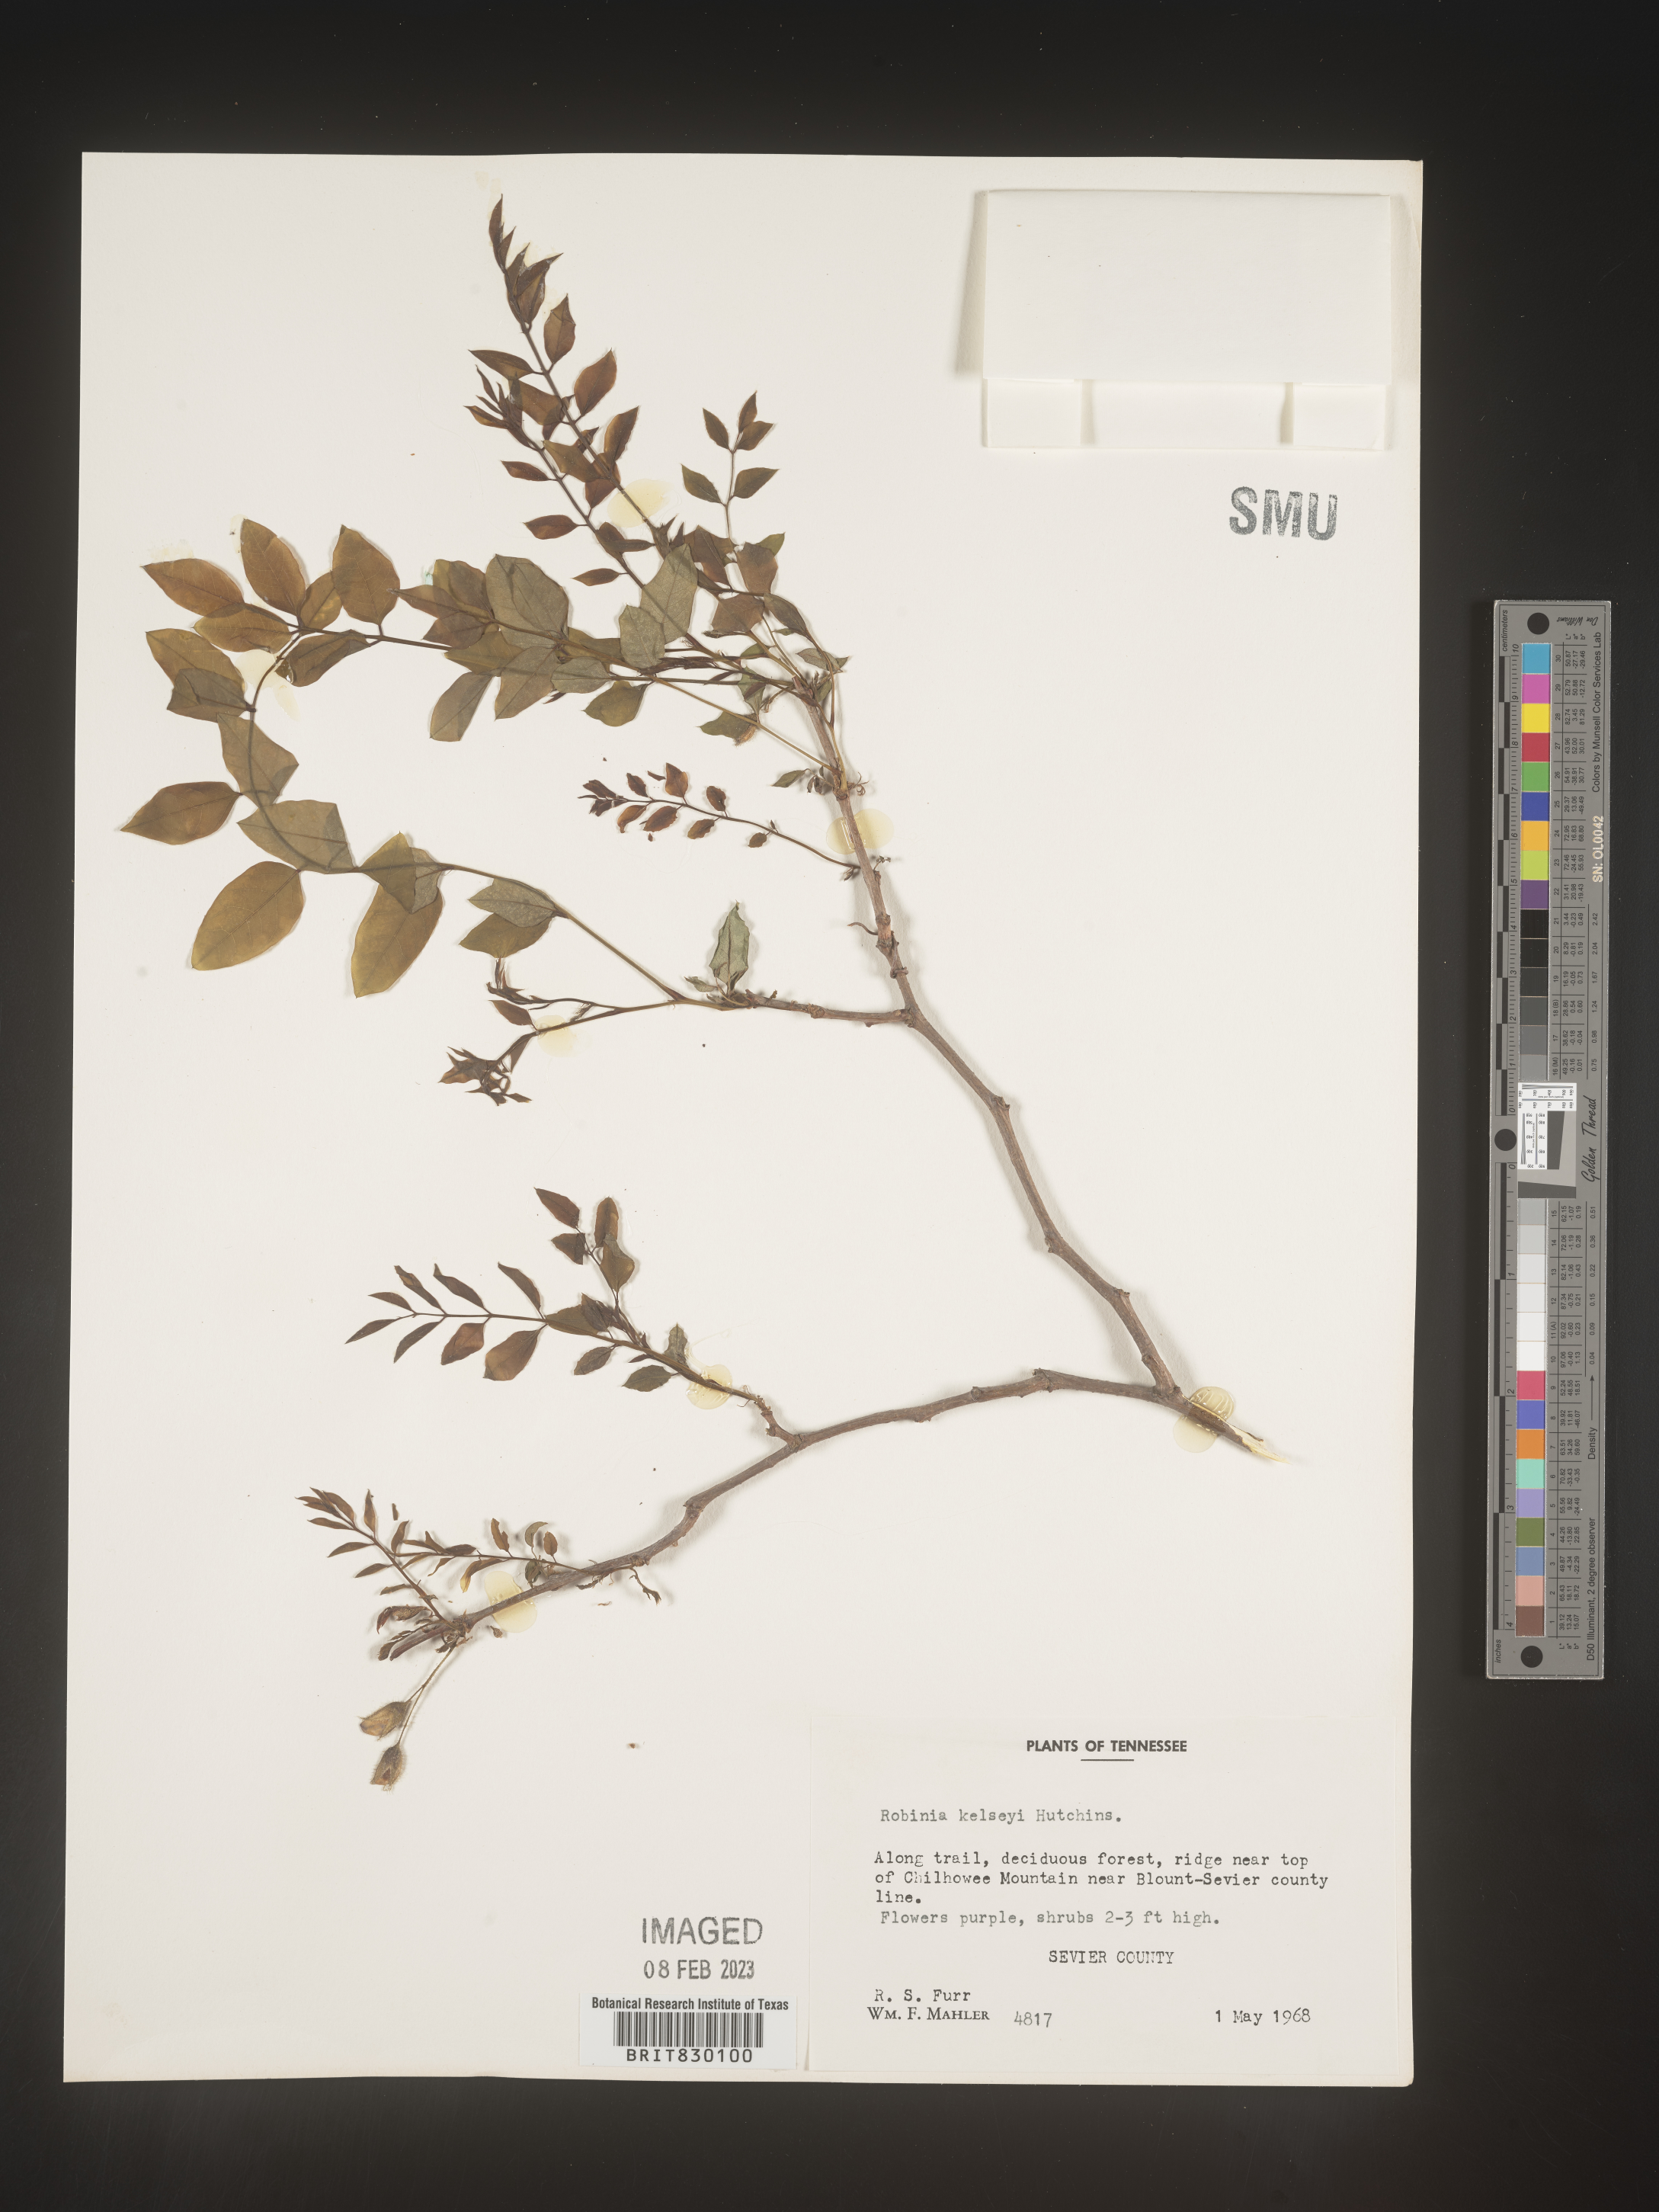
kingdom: Plantae
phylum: Tracheophyta
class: Magnoliopsida
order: Fabales
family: Fabaceae
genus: Robinia
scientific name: Robinia
